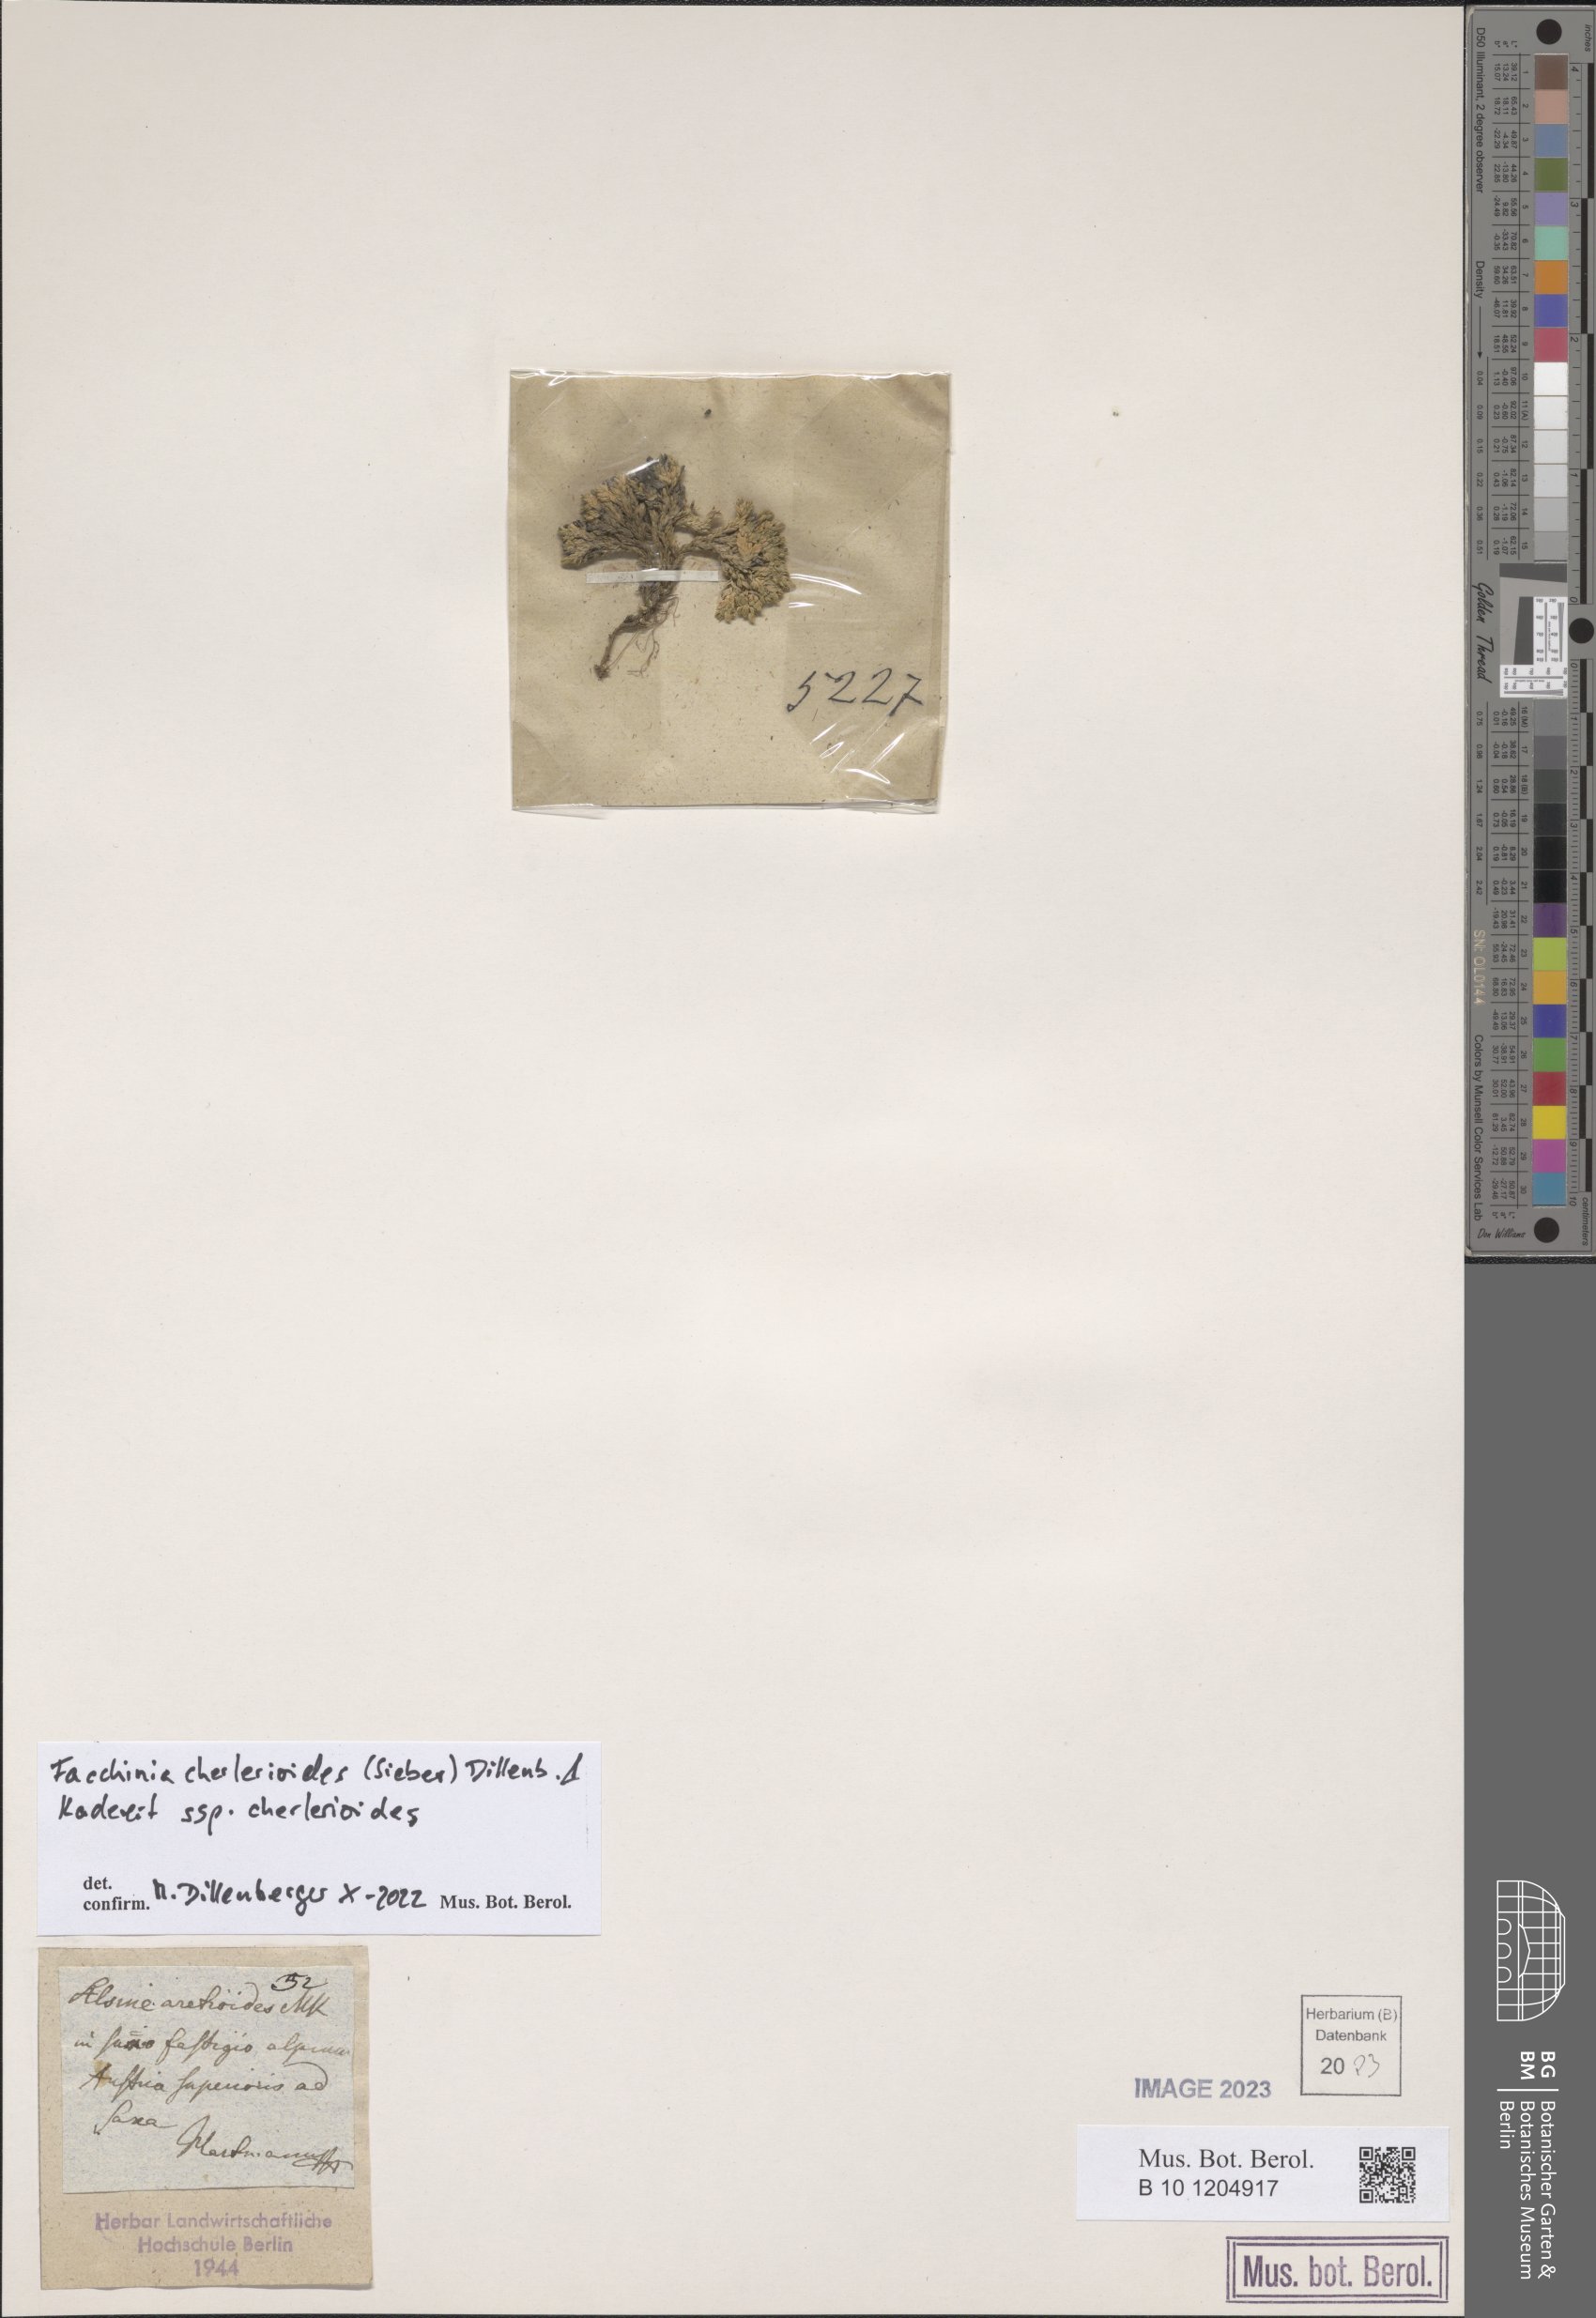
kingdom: Plantae
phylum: Tracheophyta
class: Magnoliopsida
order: Caryophyllales
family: Caryophyllaceae
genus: Facchinia
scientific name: Facchinia cherlerioides
